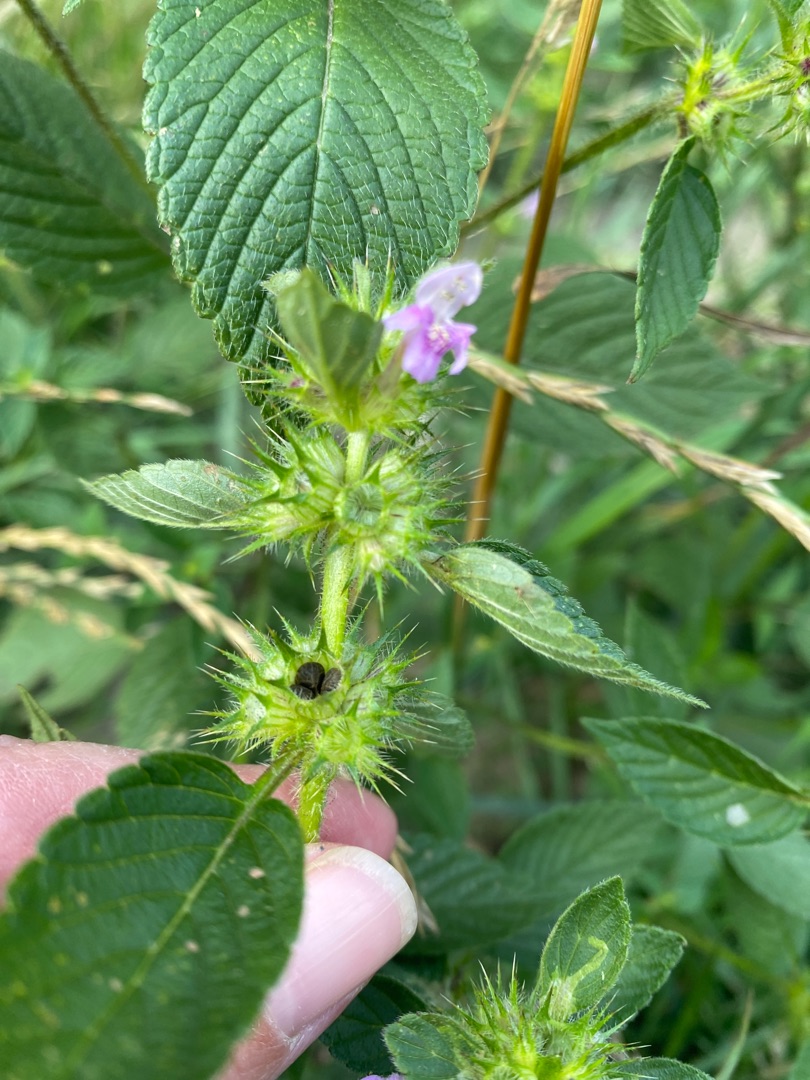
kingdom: Plantae
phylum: Tracheophyta
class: Magnoliopsida
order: Lamiales
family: Lamiaceae
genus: Galeopsis
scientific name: Galeopsis tetrahit
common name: Almindelig hanekro
